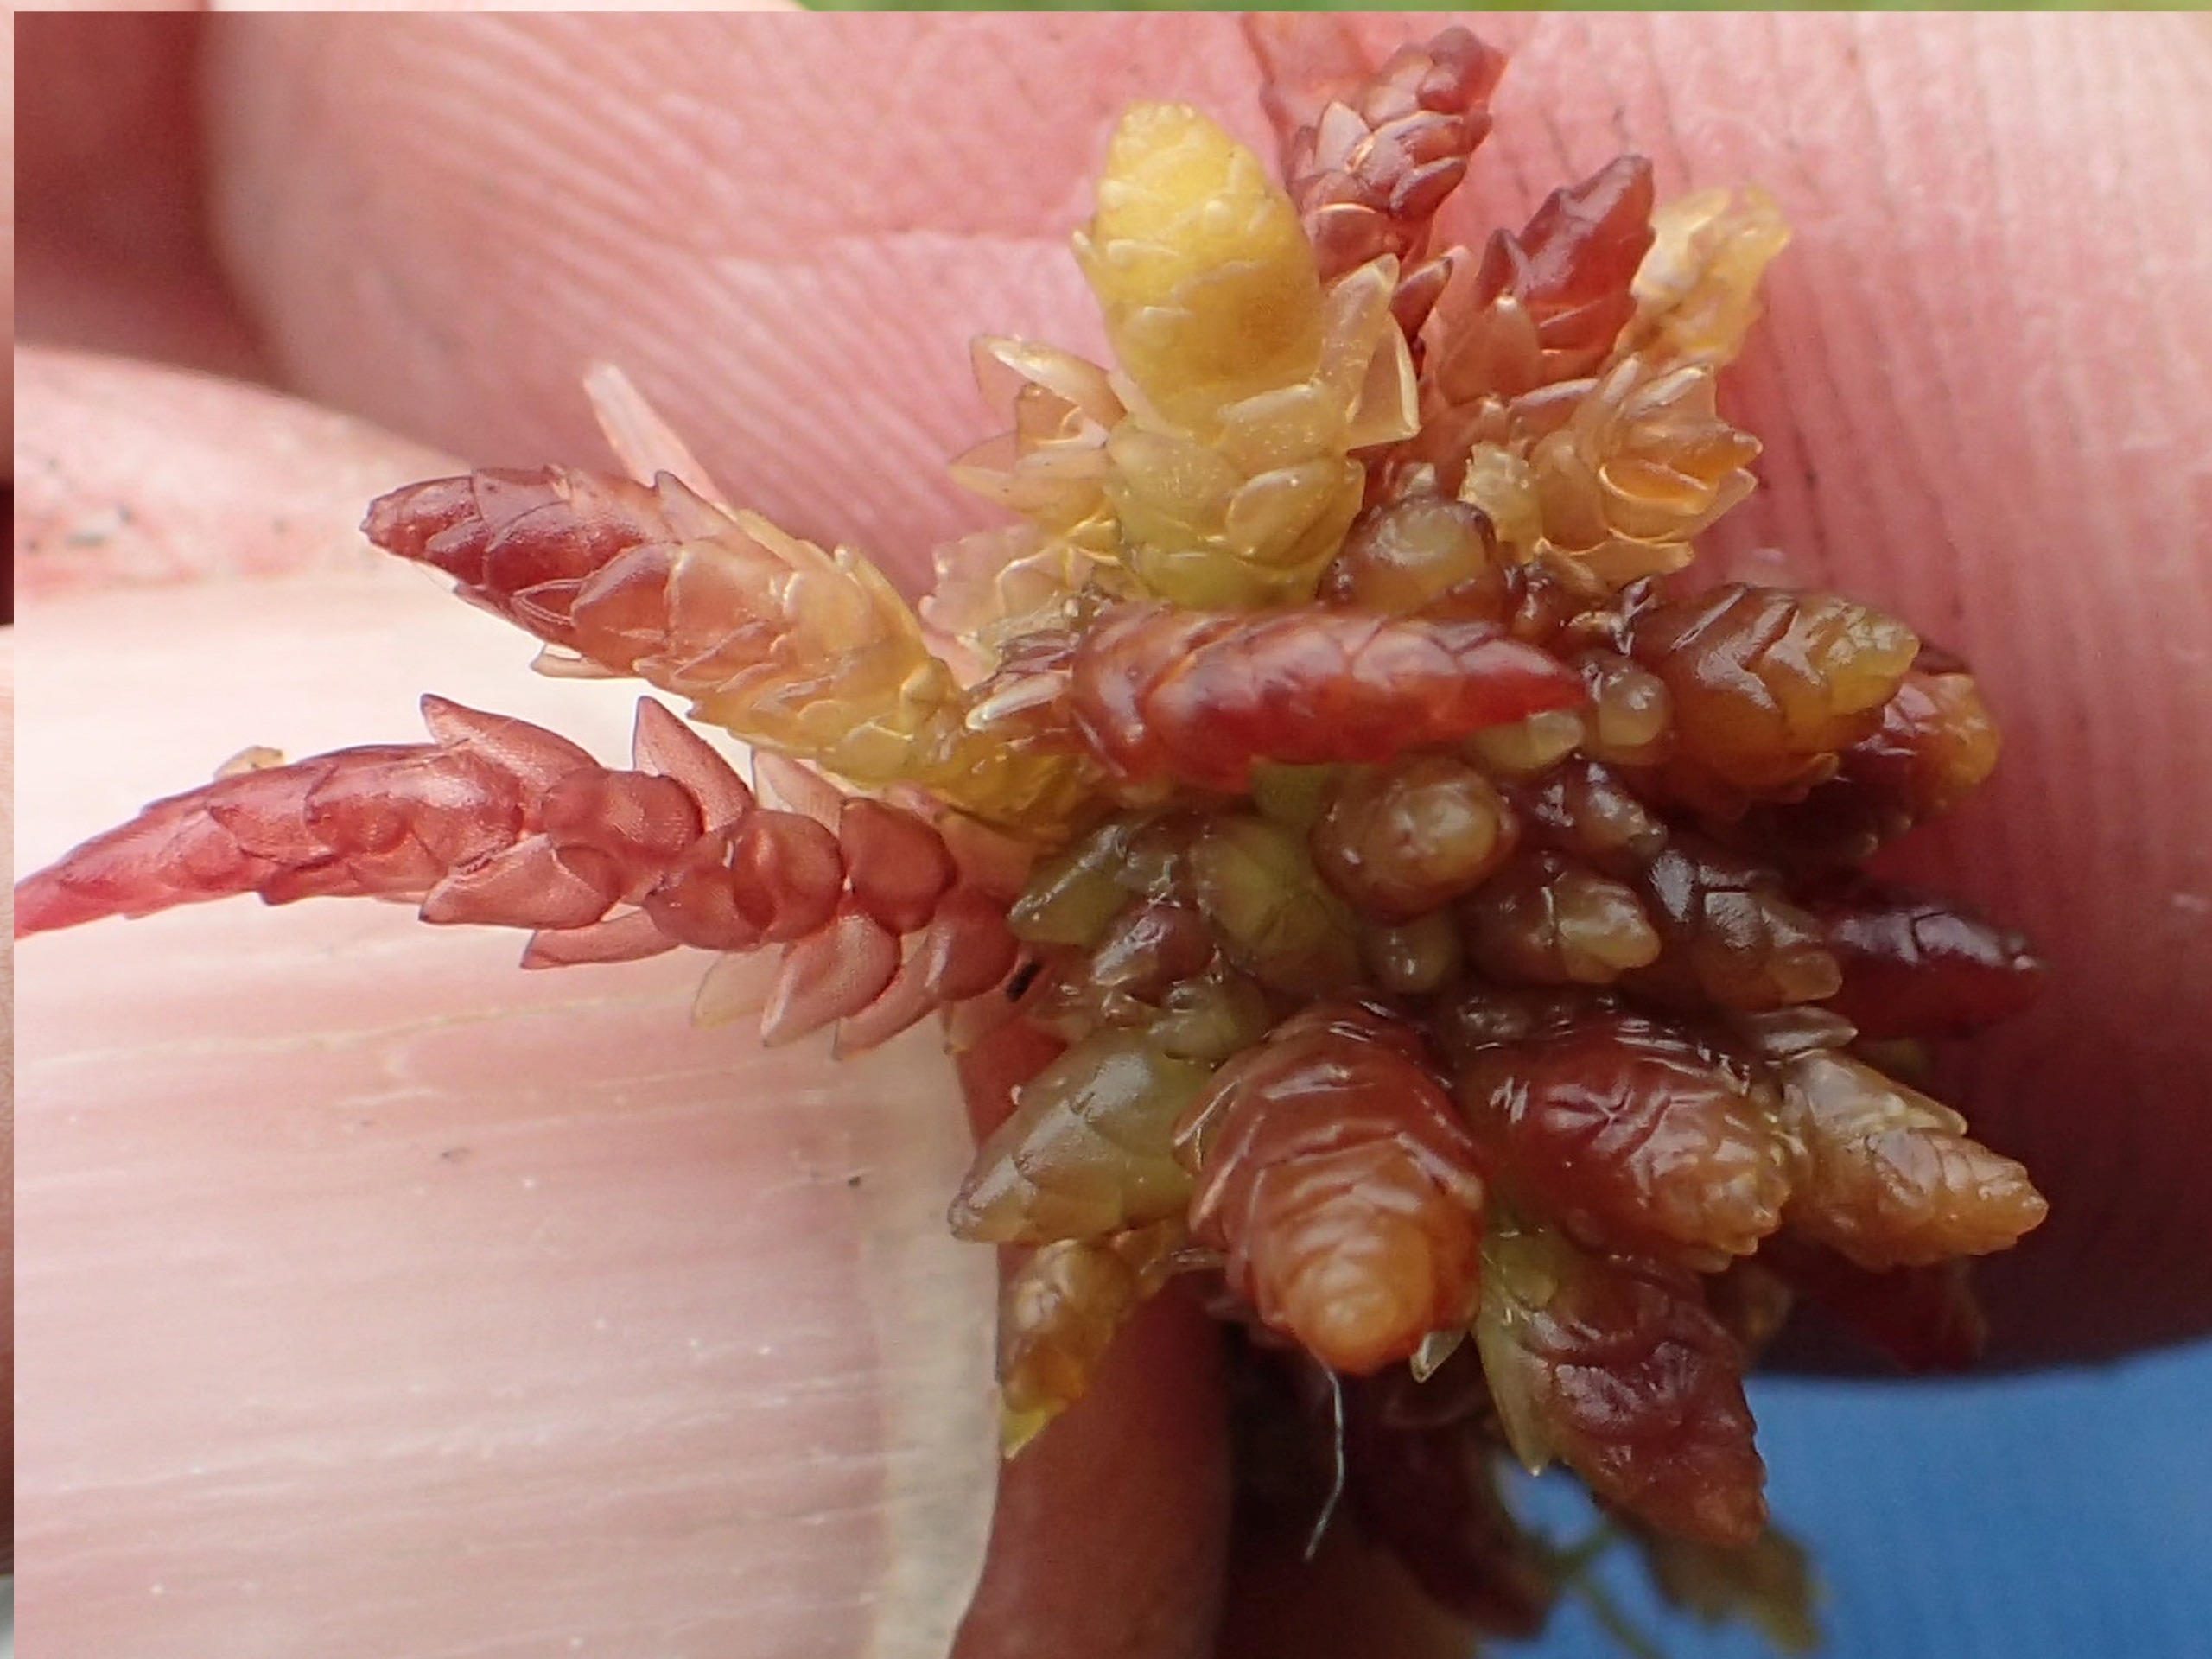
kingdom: Plantae
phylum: Bryophyta
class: Sphagnopsida
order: Sphagnales
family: Sphagnaceae
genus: Sphagnum
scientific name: Sphagnum
